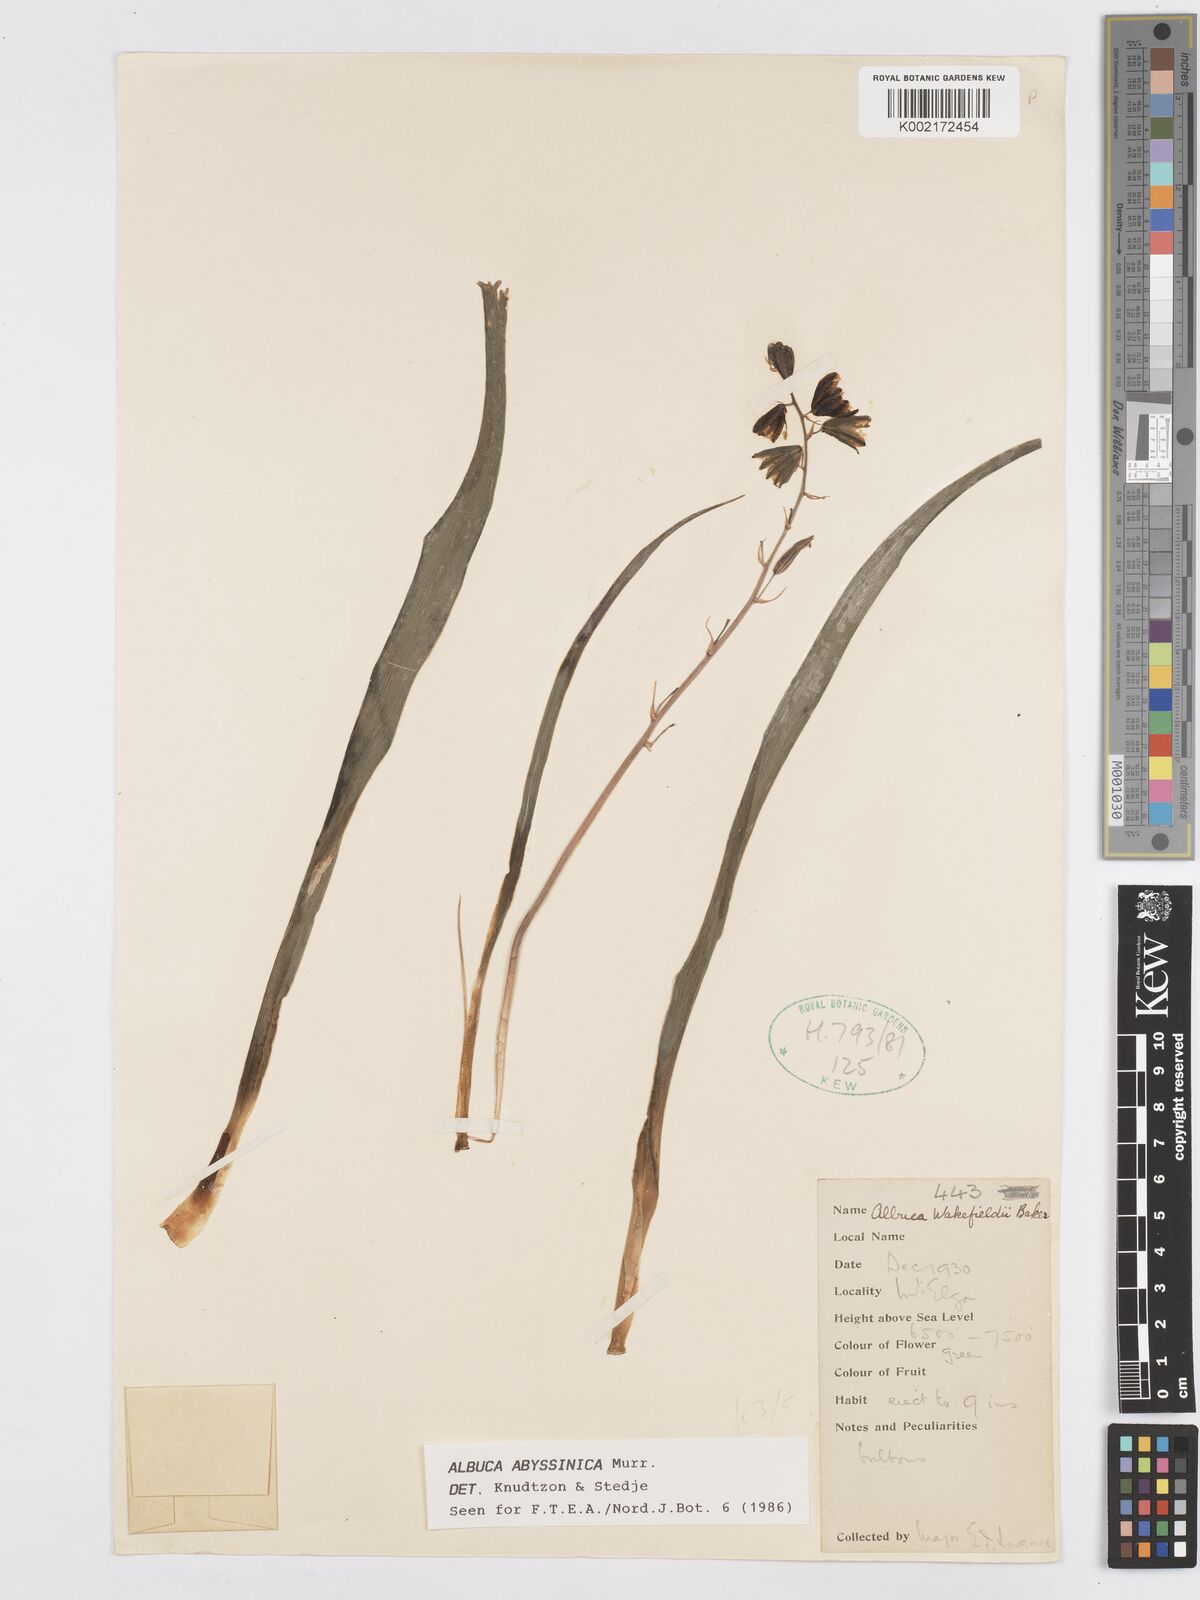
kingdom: Plantae
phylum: Tracheophyta
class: Liliopsida
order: Asparagales
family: Asparagaceae
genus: Albuca
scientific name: Albuca abyssinica
